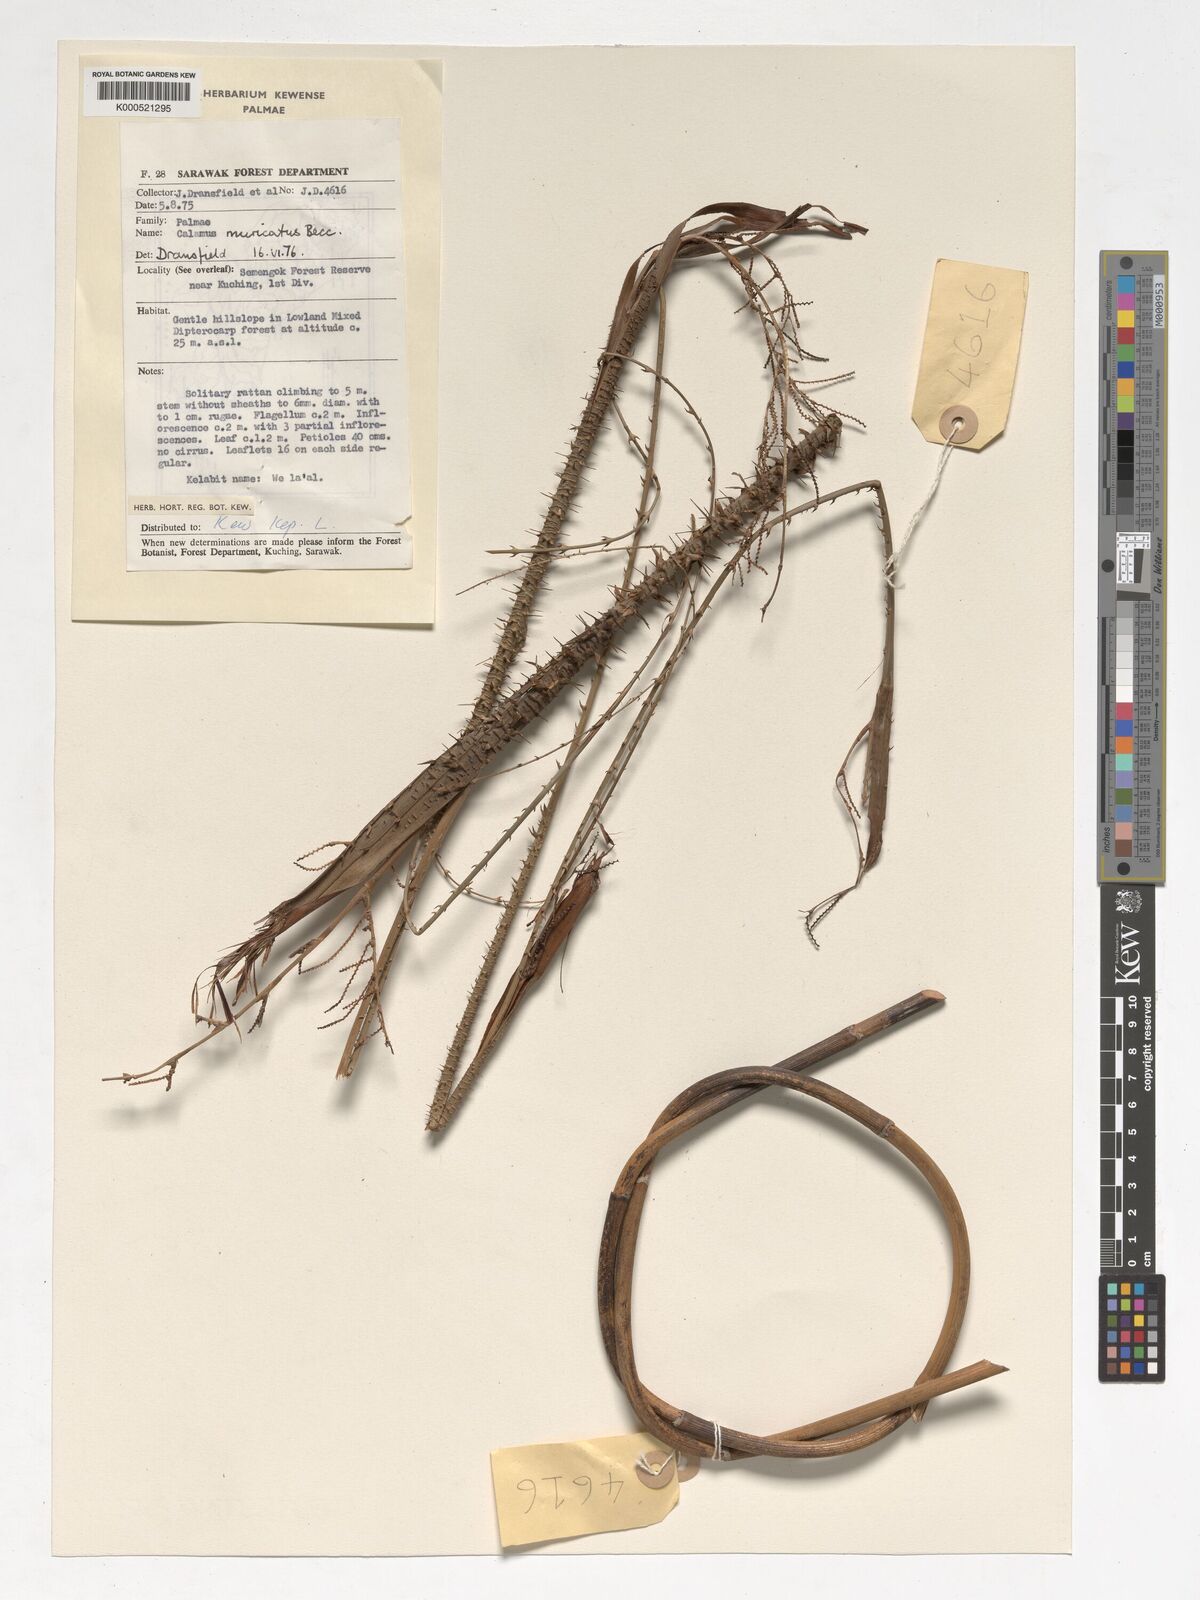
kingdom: Plantae
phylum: Tracheophyta
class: Liliopsida
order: Arecales
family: Arecaceae
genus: Calamus
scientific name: Calamus muricatus
